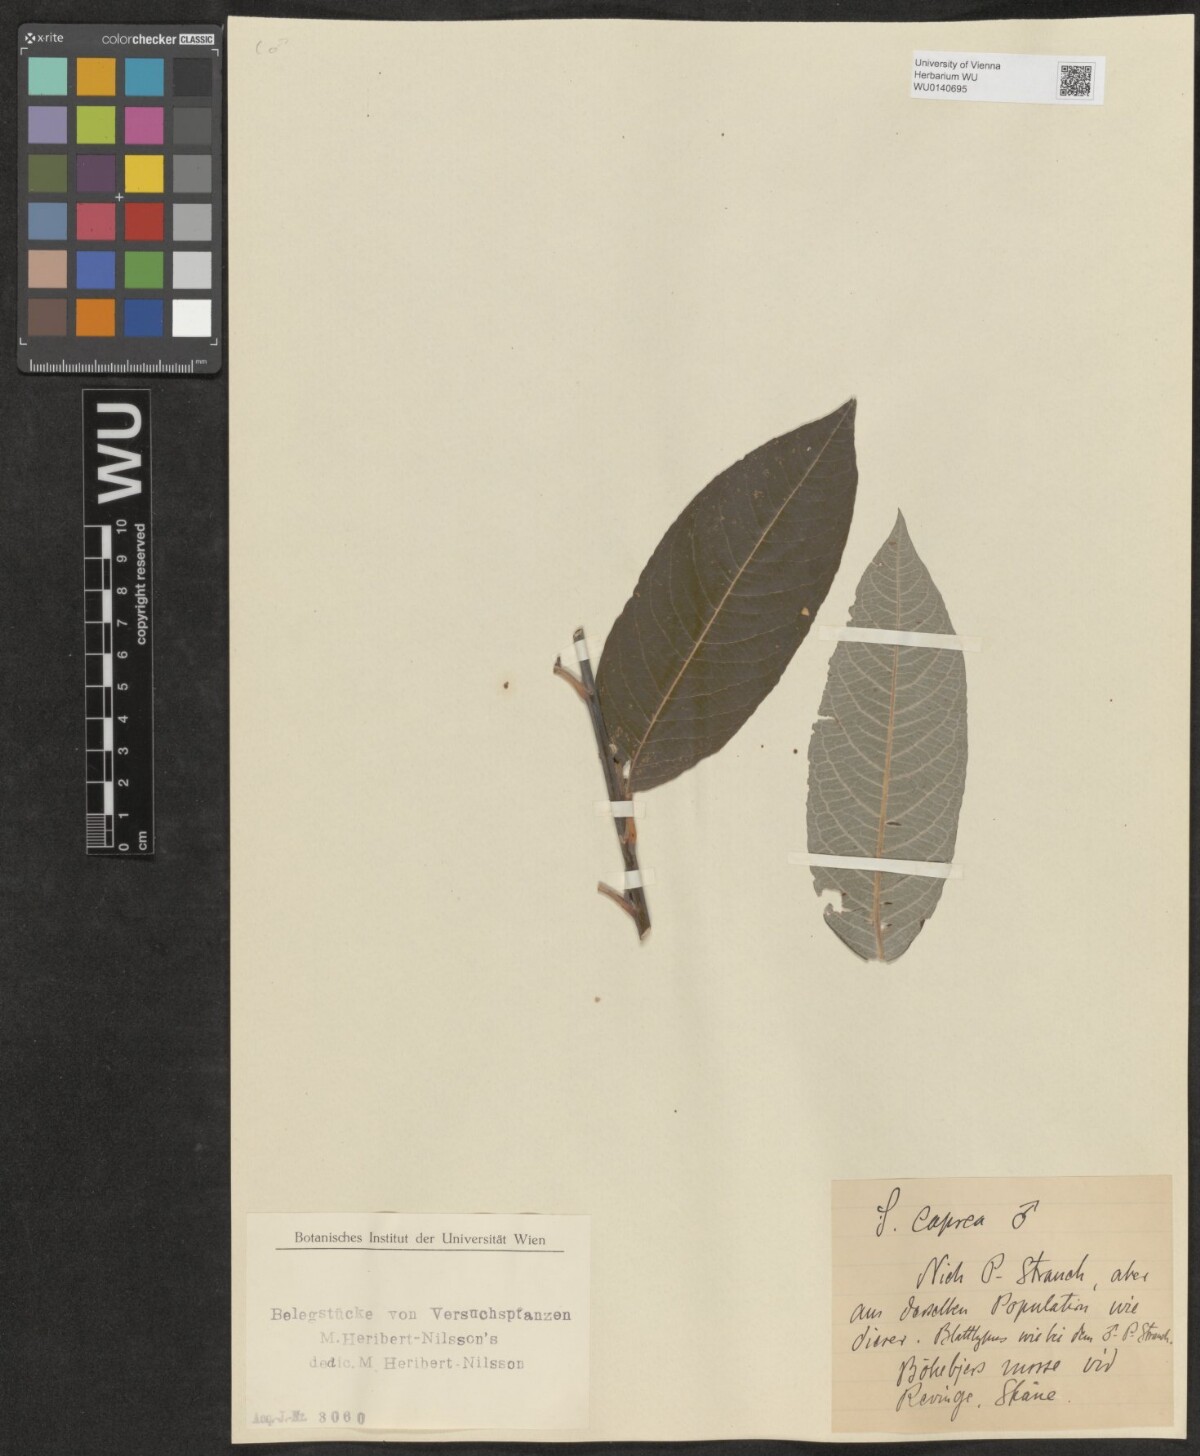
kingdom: Plantae
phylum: Tracheophyta
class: Magnoliopsida
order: Malpighiales
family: Salicaceae
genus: Salix
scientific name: Salix
